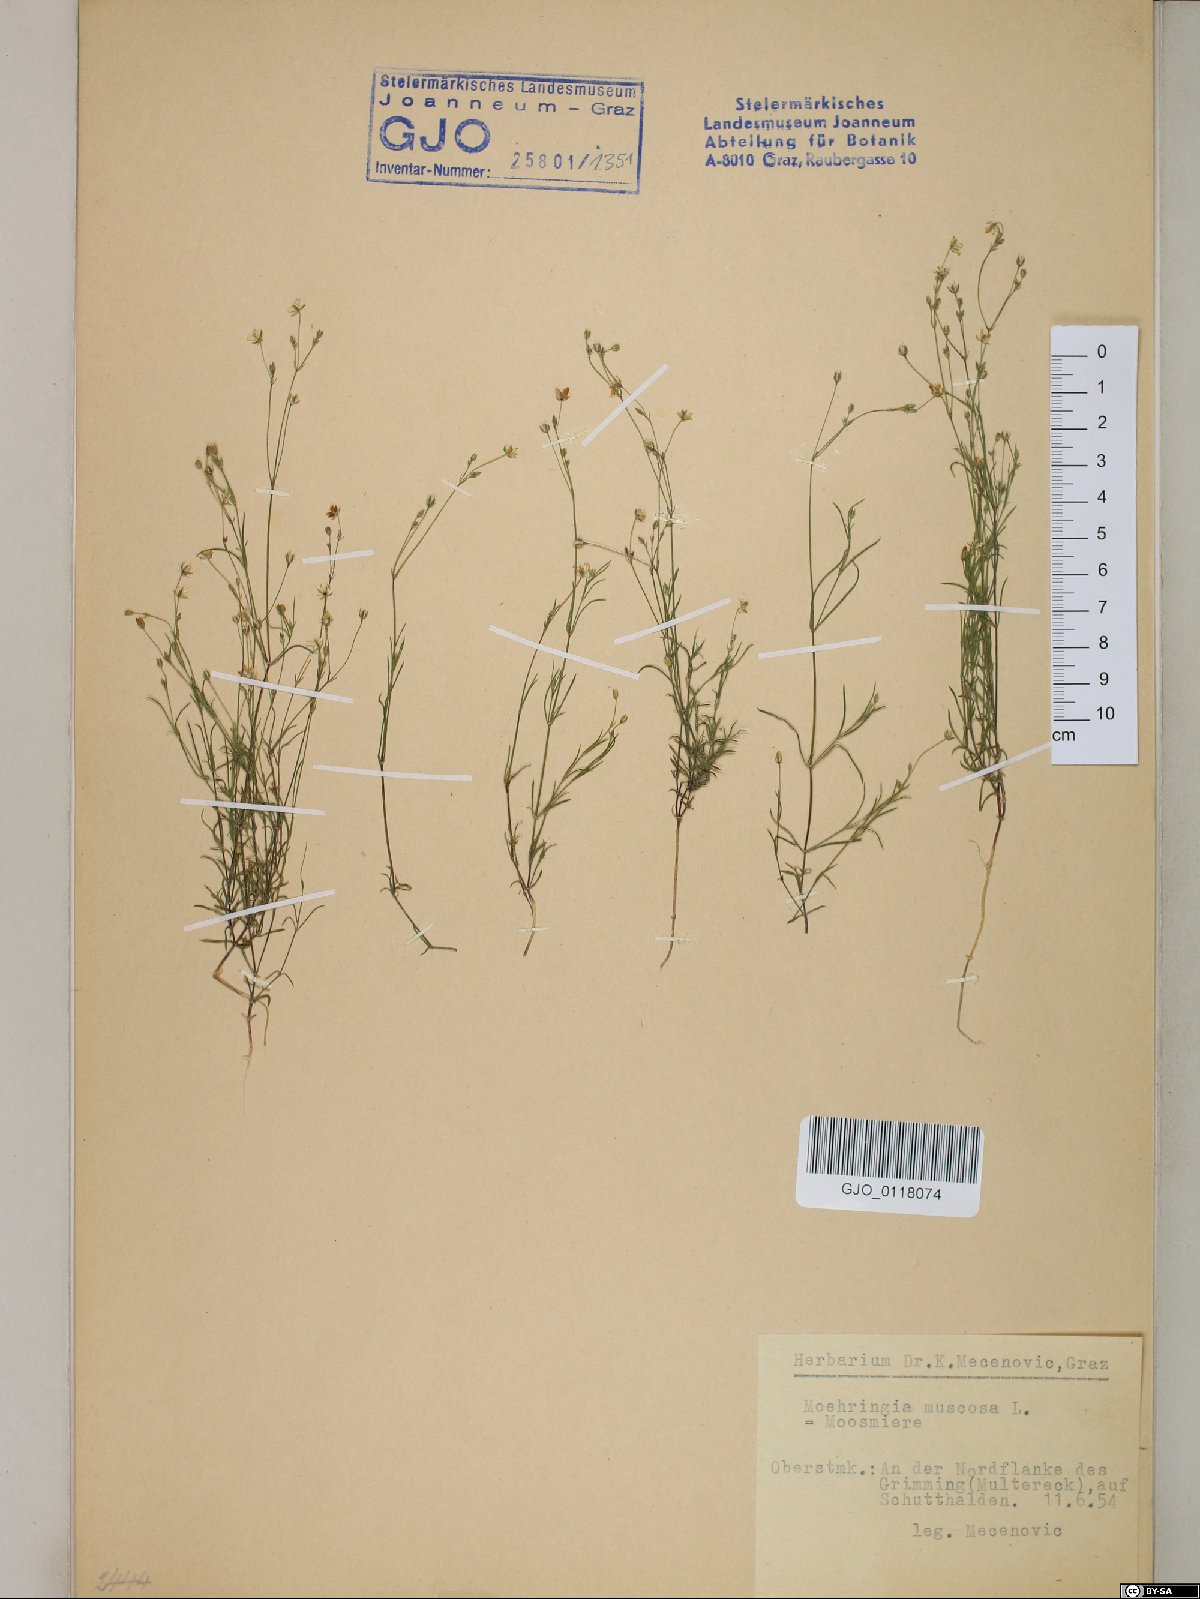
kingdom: Plantae
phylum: Tracheophyta
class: Magnoliopsida
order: Caryophyllales
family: Caryophyllaceae
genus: Moehringia
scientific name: Moehringia muscosa
